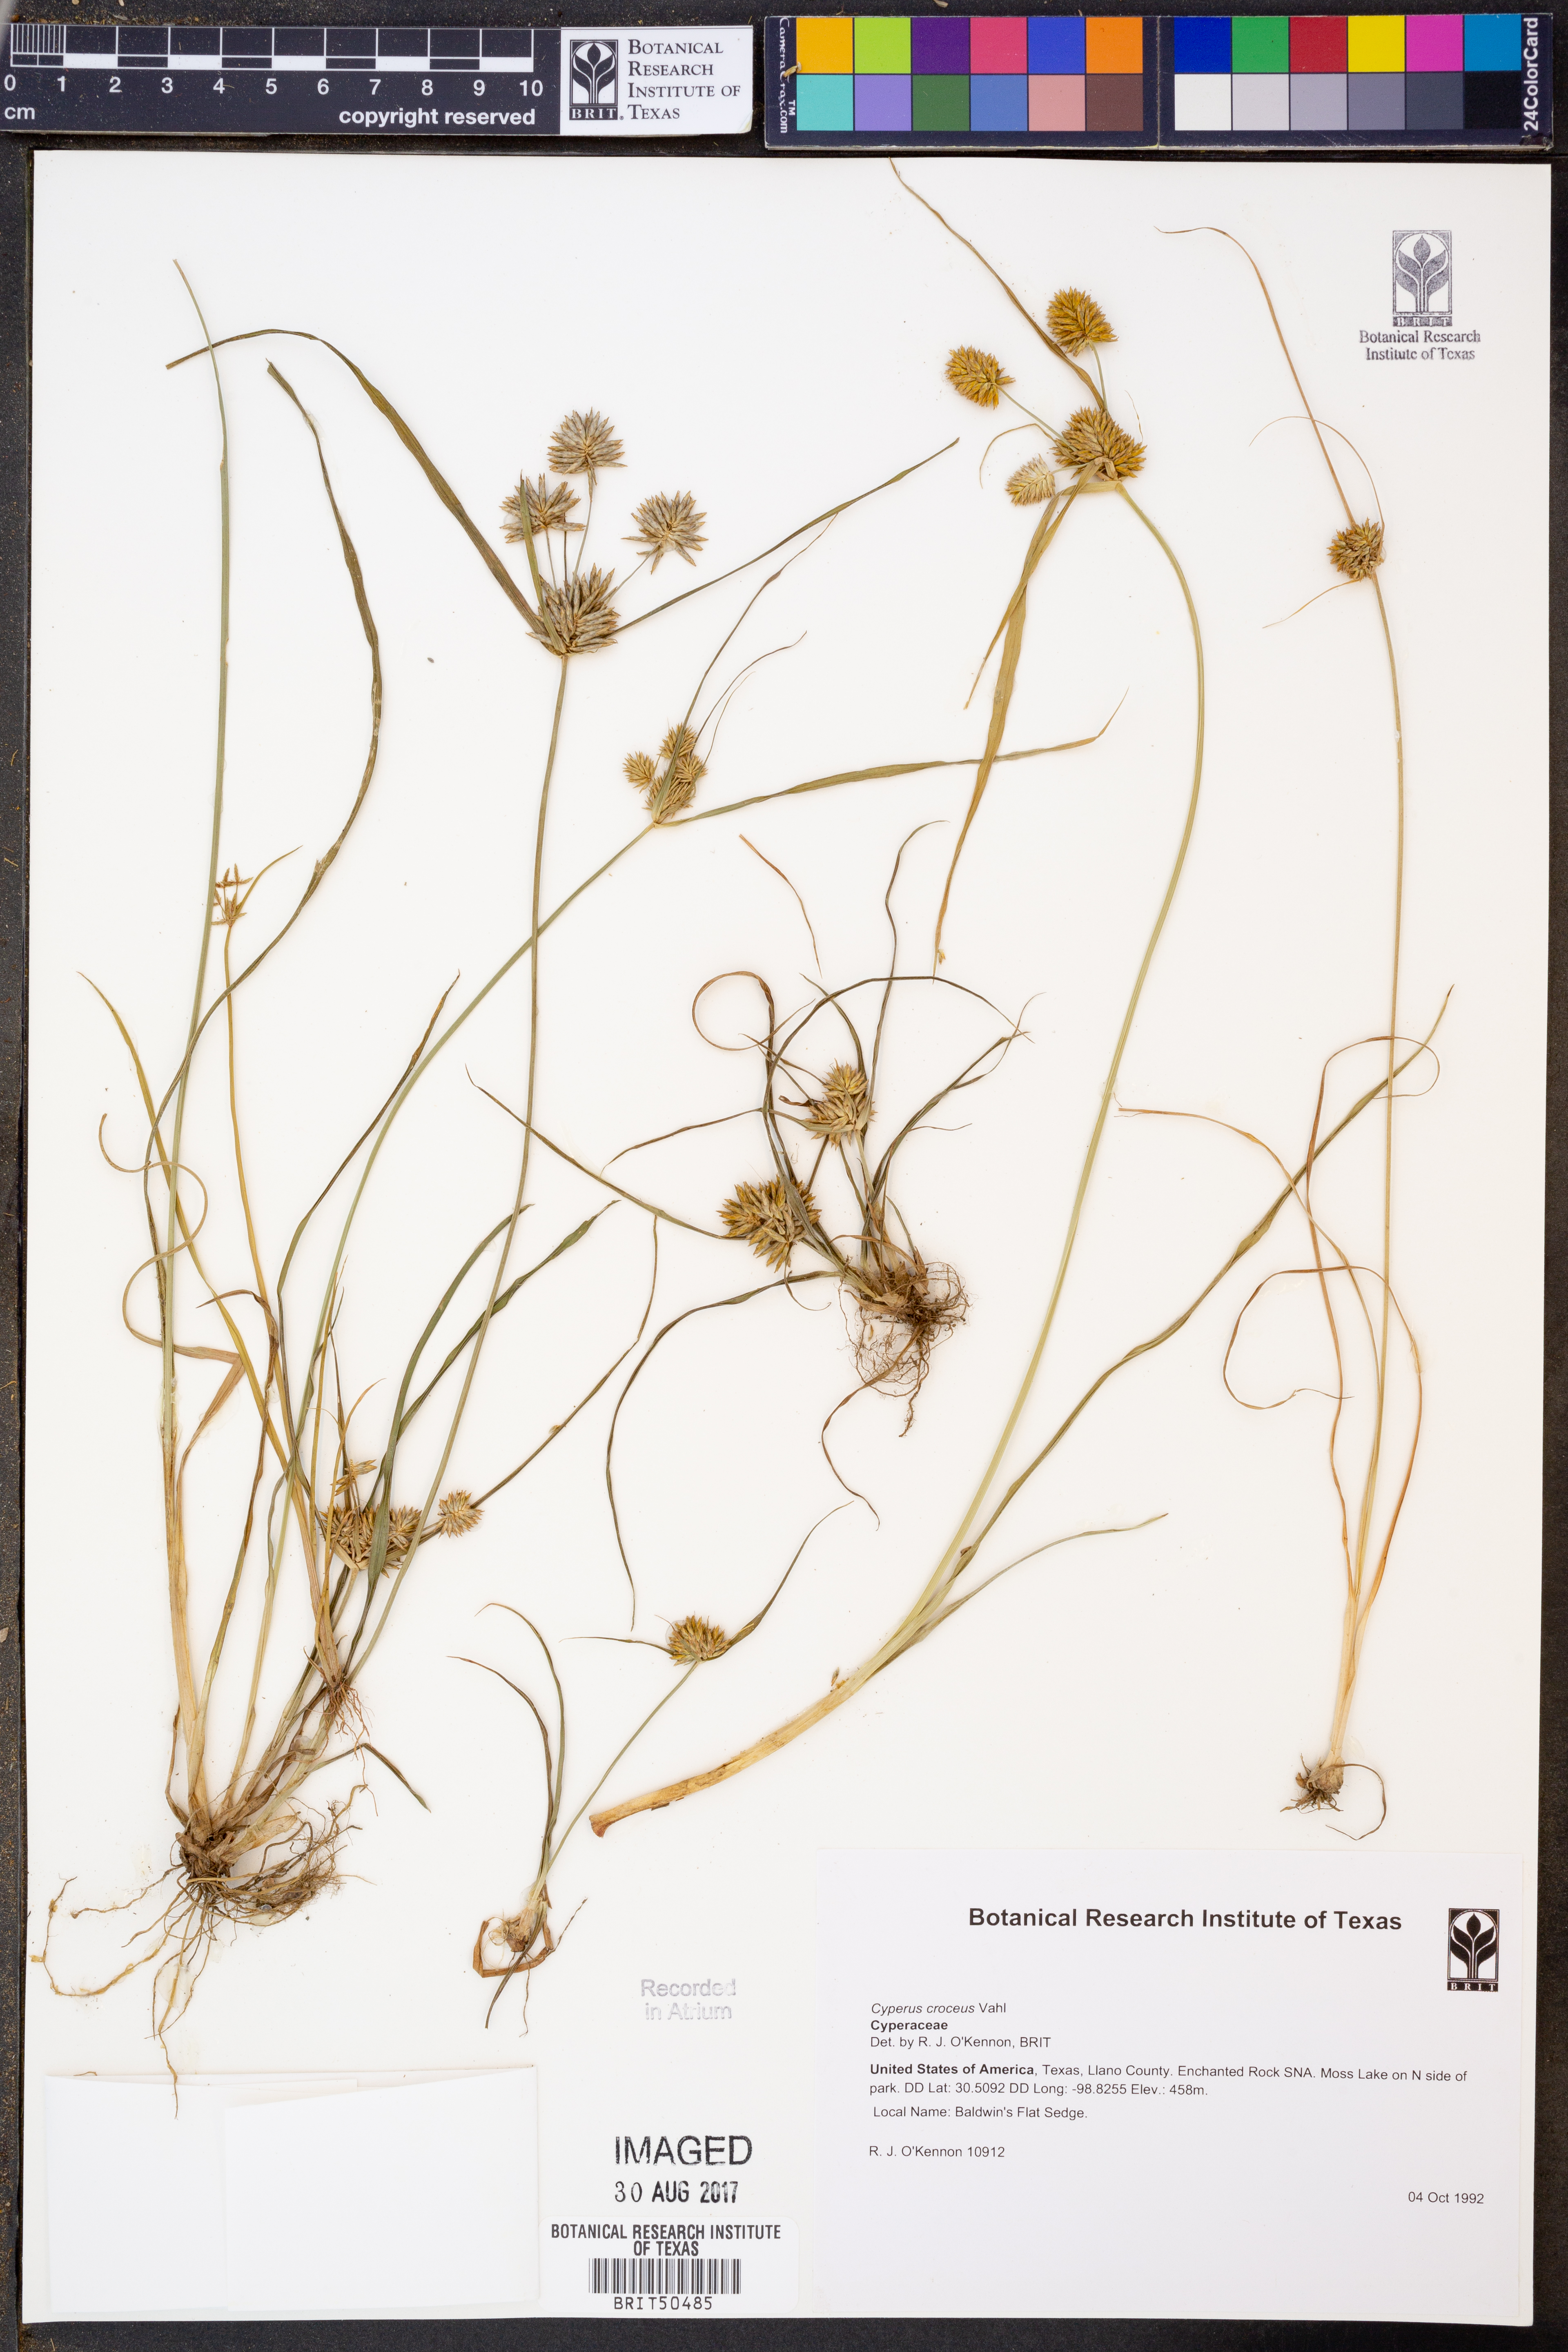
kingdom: Plantae
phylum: Tracheophyta
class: Liliopsida
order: Poales
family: Cyperaceae
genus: Cyperus
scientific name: Cyperus croceus
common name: Baldwin's flatsedge
